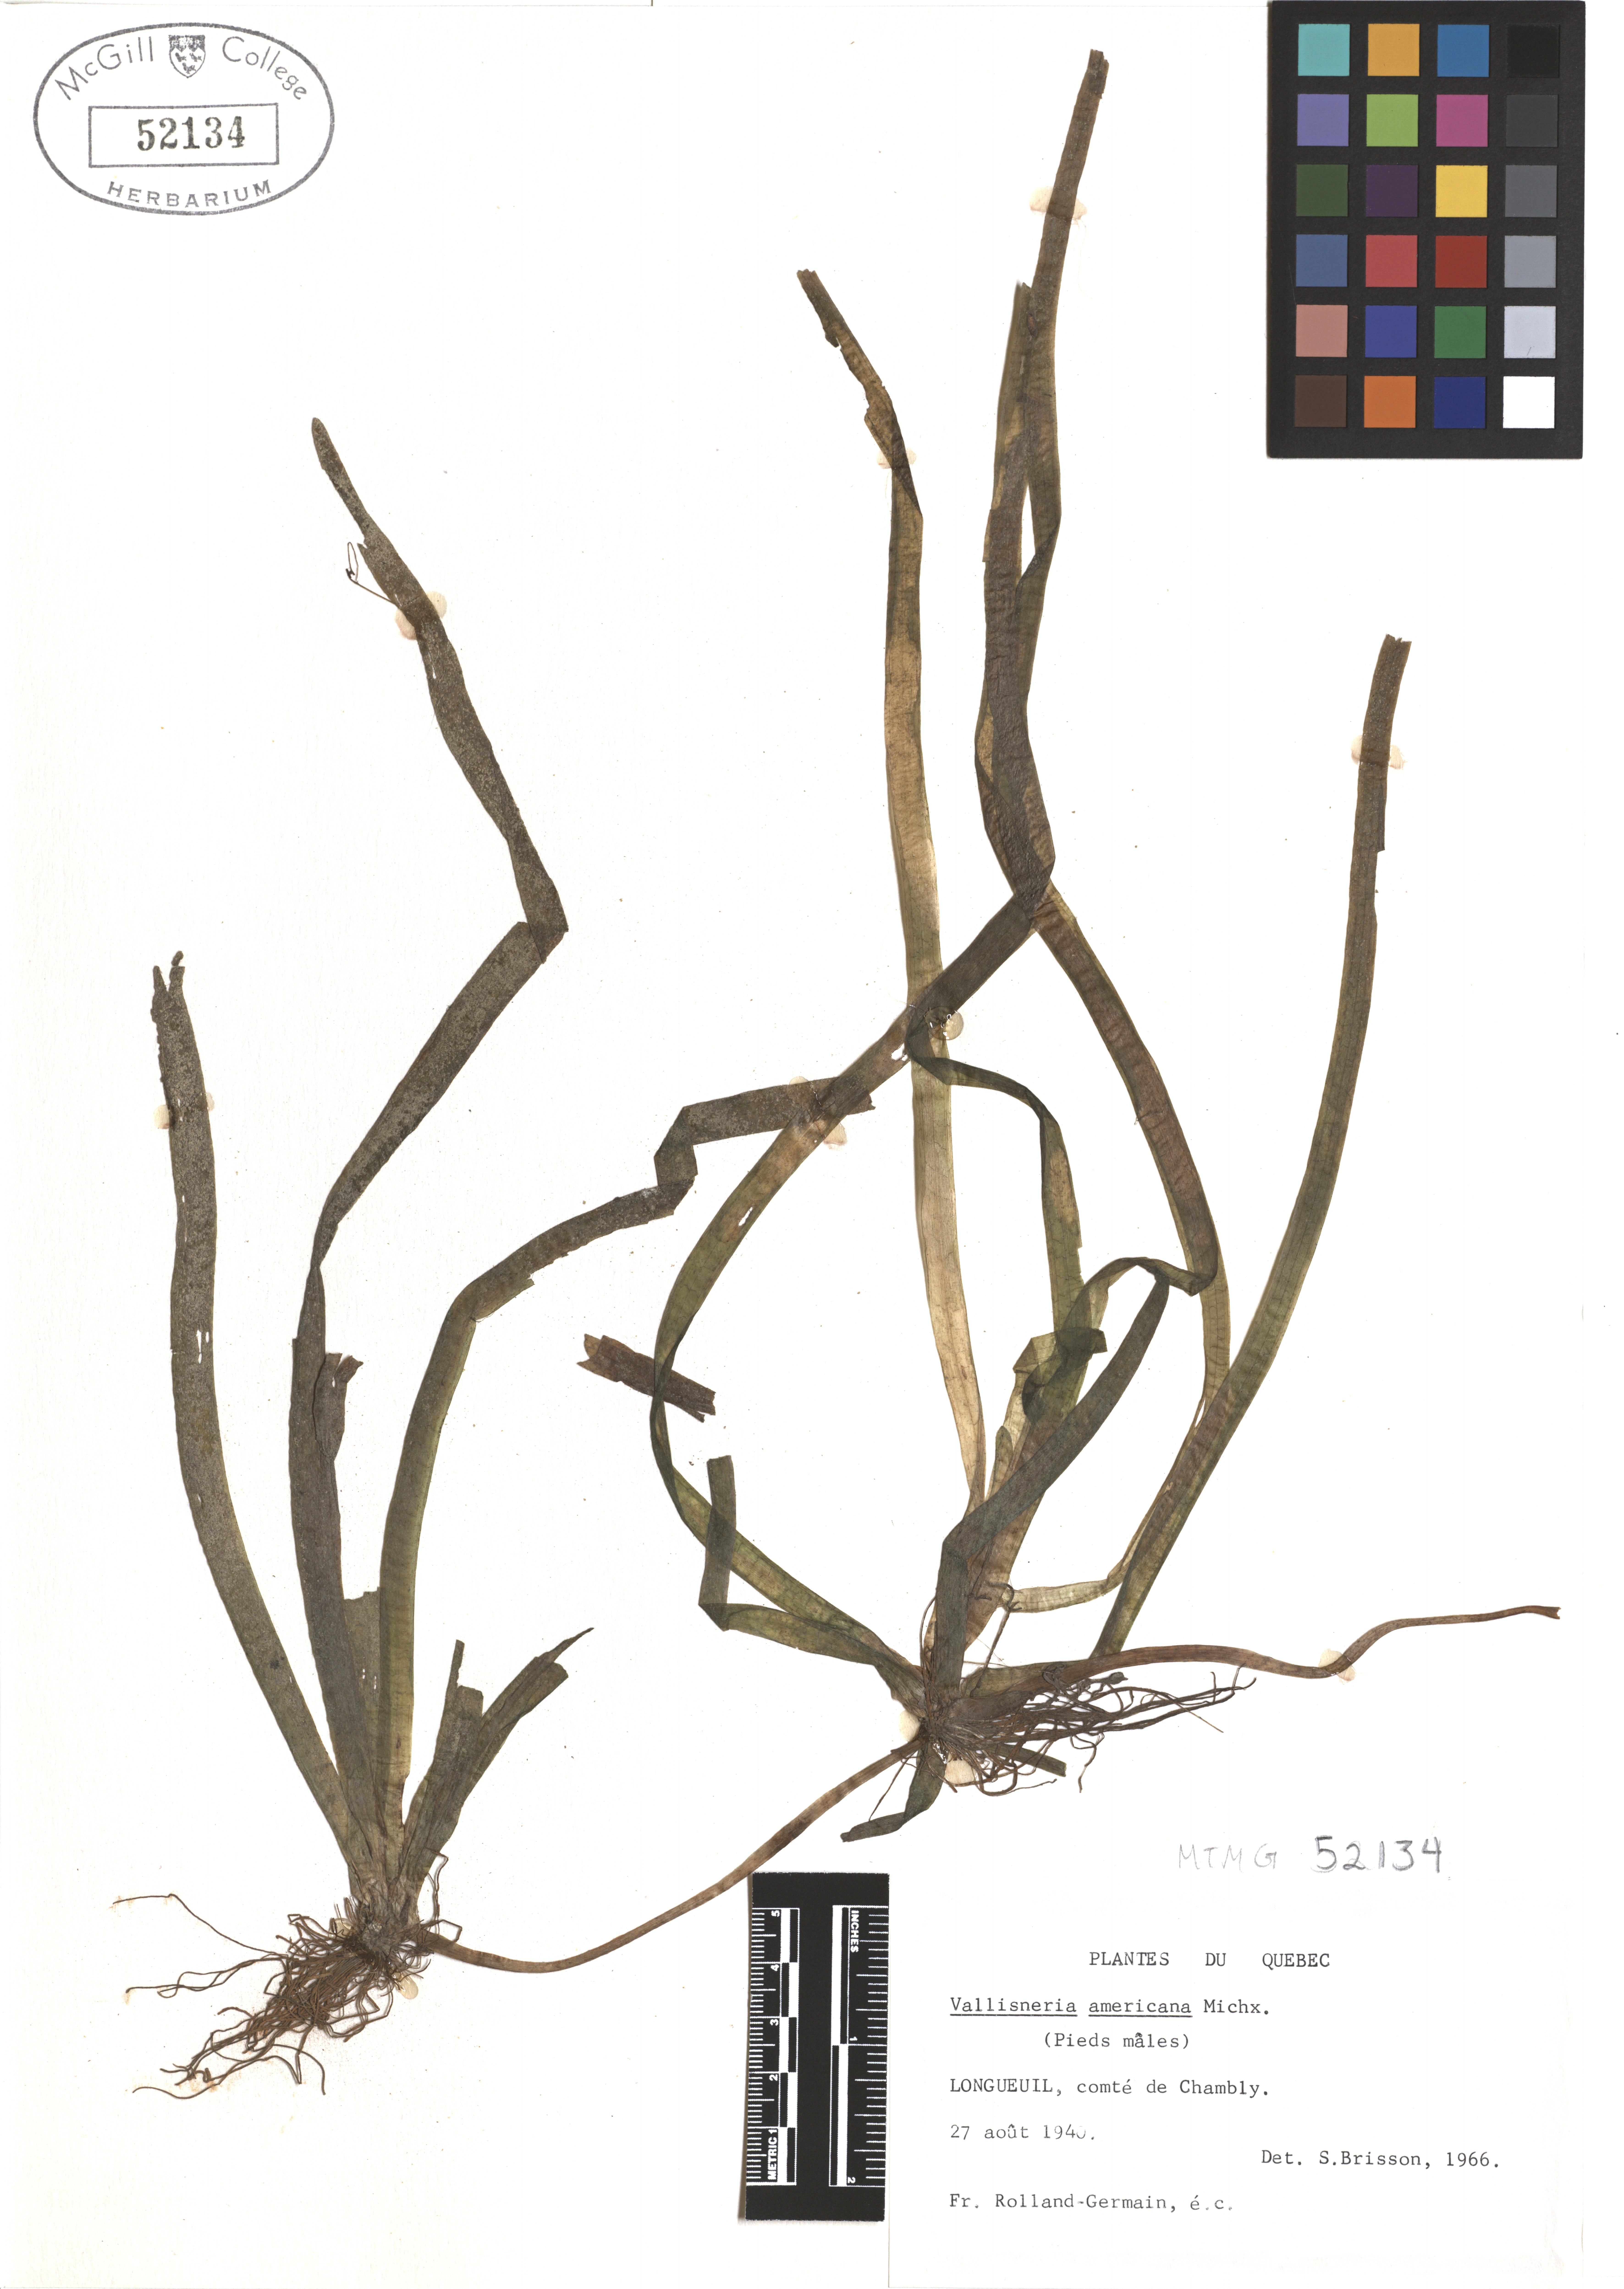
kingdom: Plantae
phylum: Tracheophyta
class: Liliopsida
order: Alismatales
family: Hydrocharitaceae
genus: Vallisneria
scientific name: Vallisneria americana
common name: American eelgrass
